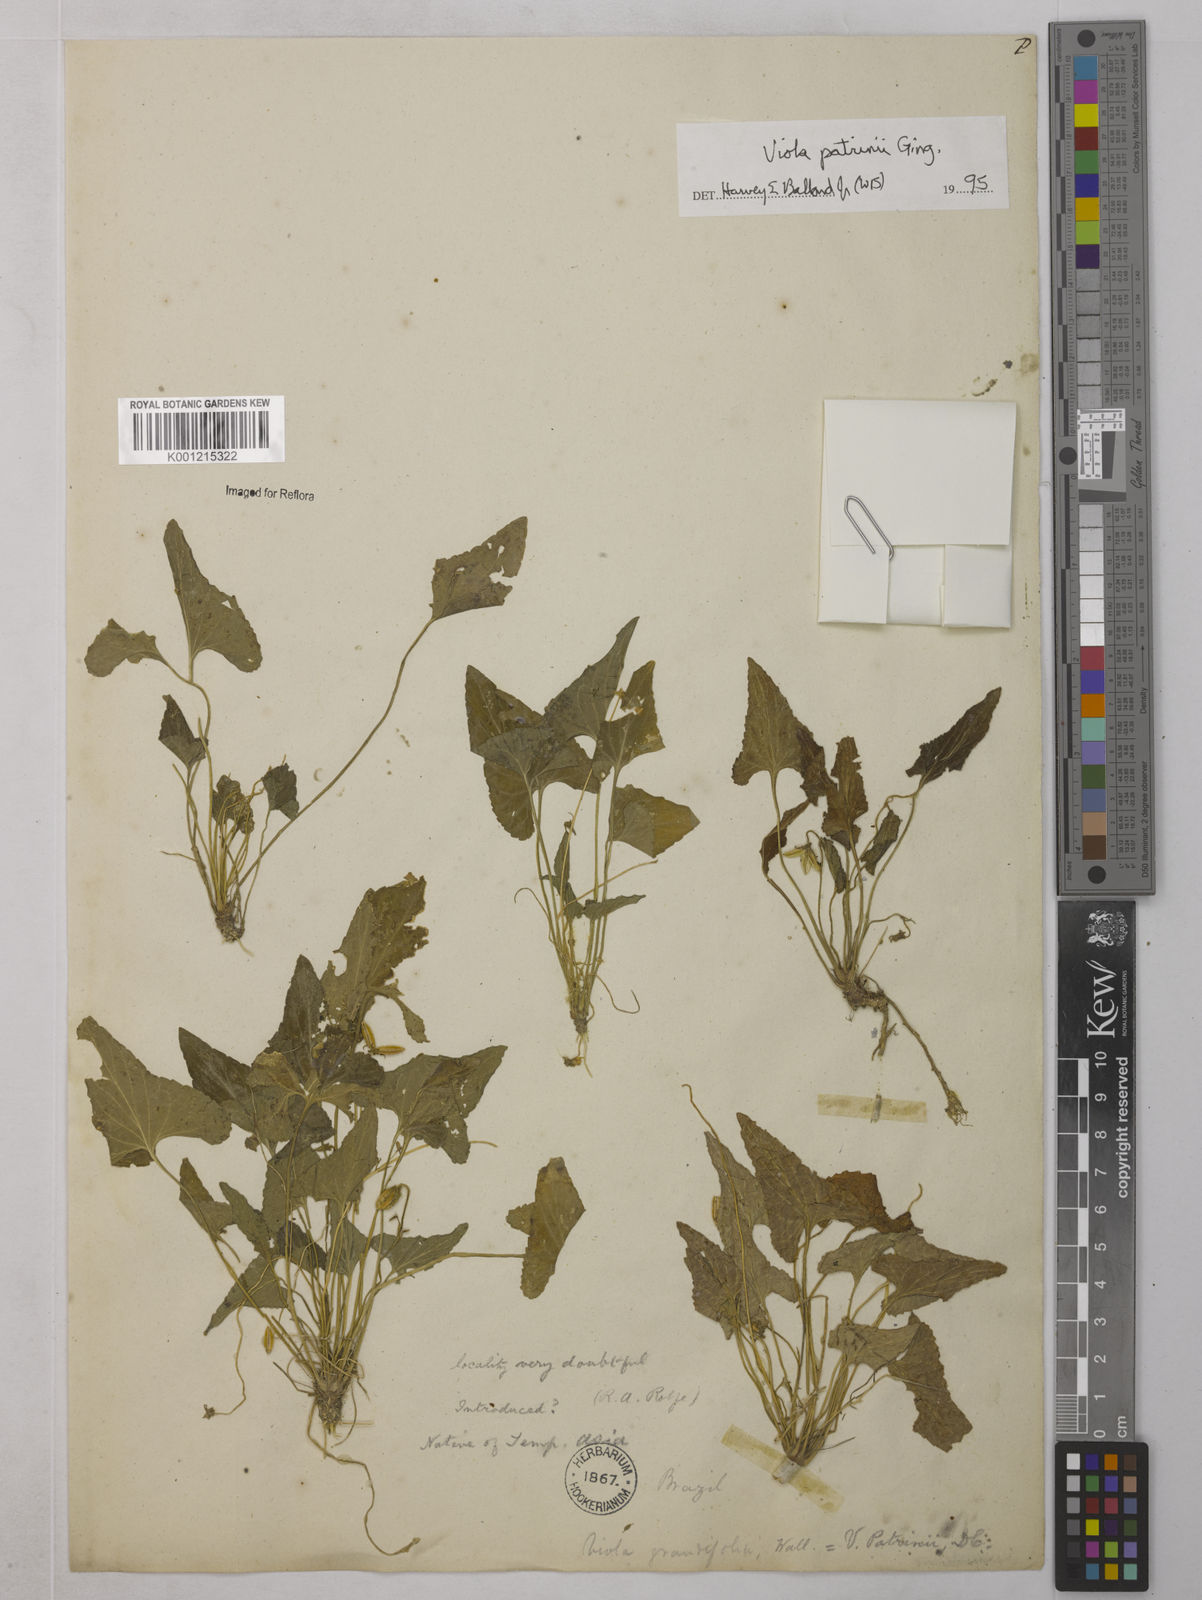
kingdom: Plantae
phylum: Tracheophyta
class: Magnoliopsida
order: Malpighiales
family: Violaceae
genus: Viola
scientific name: Viola patrinii
